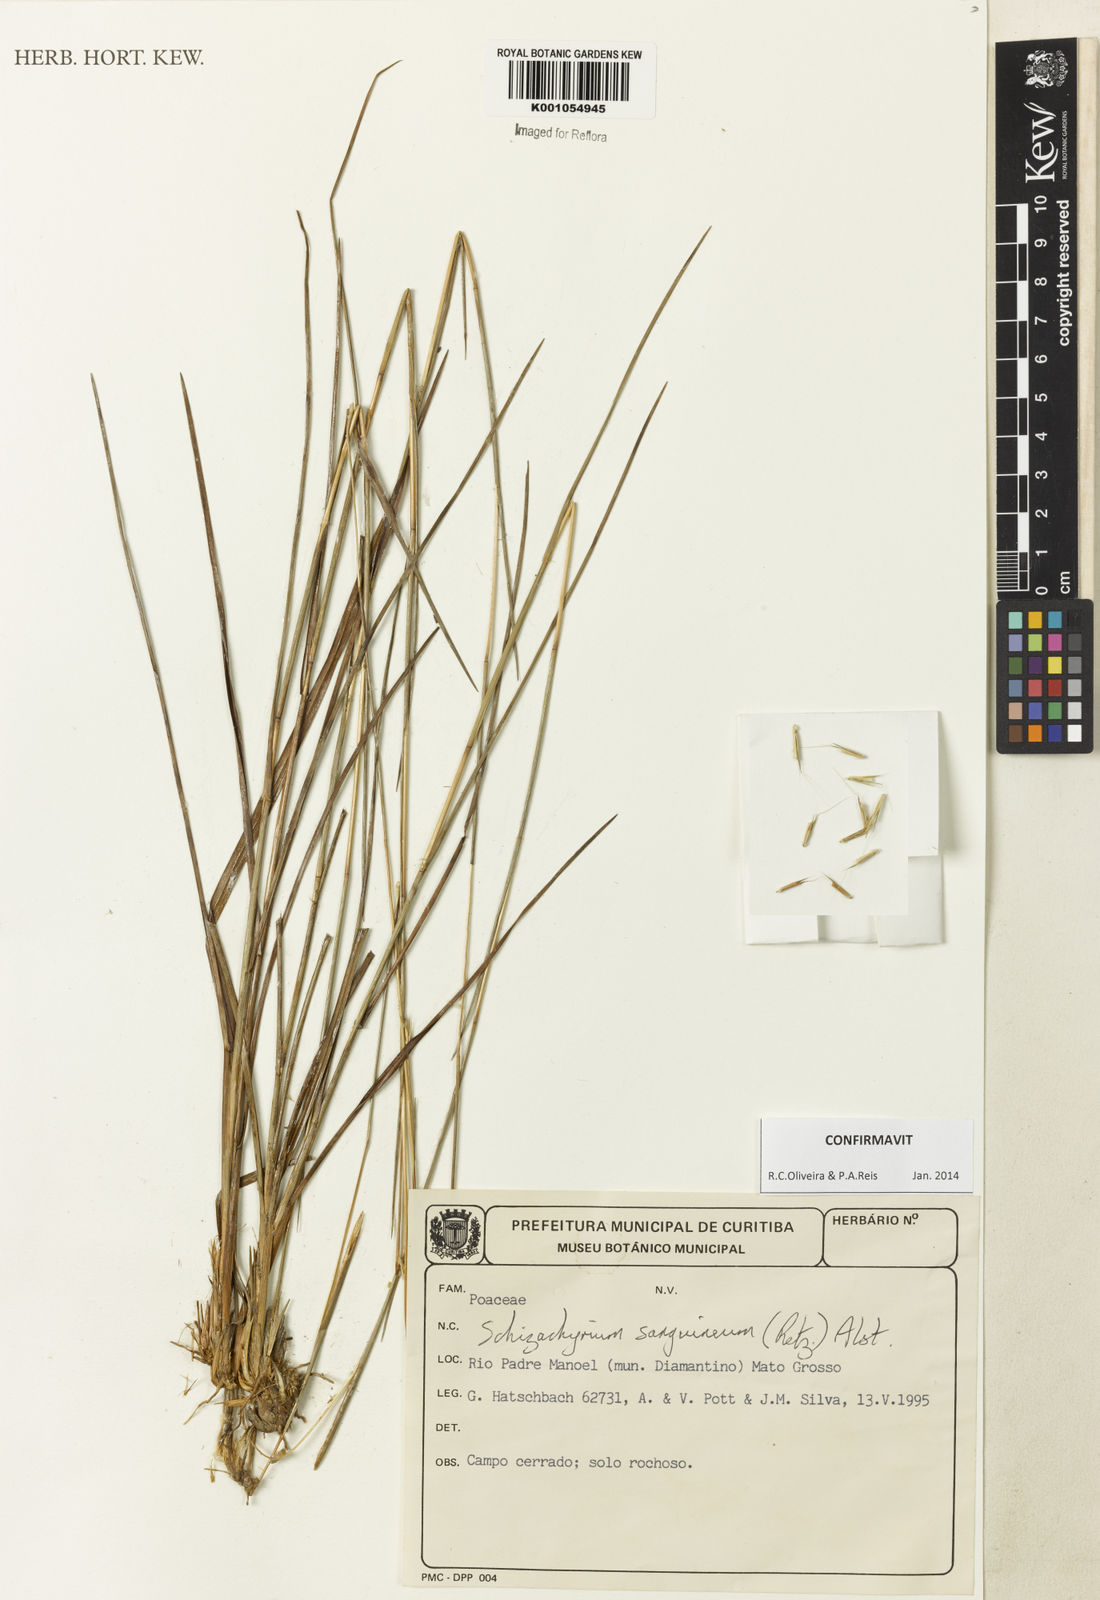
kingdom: Plantae
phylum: Tracheophyta
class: Liliopsida
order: Poales
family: Poaceae
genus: Schizachyrium
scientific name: Schizachyrium sanguineum
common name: Crimson bluestem
